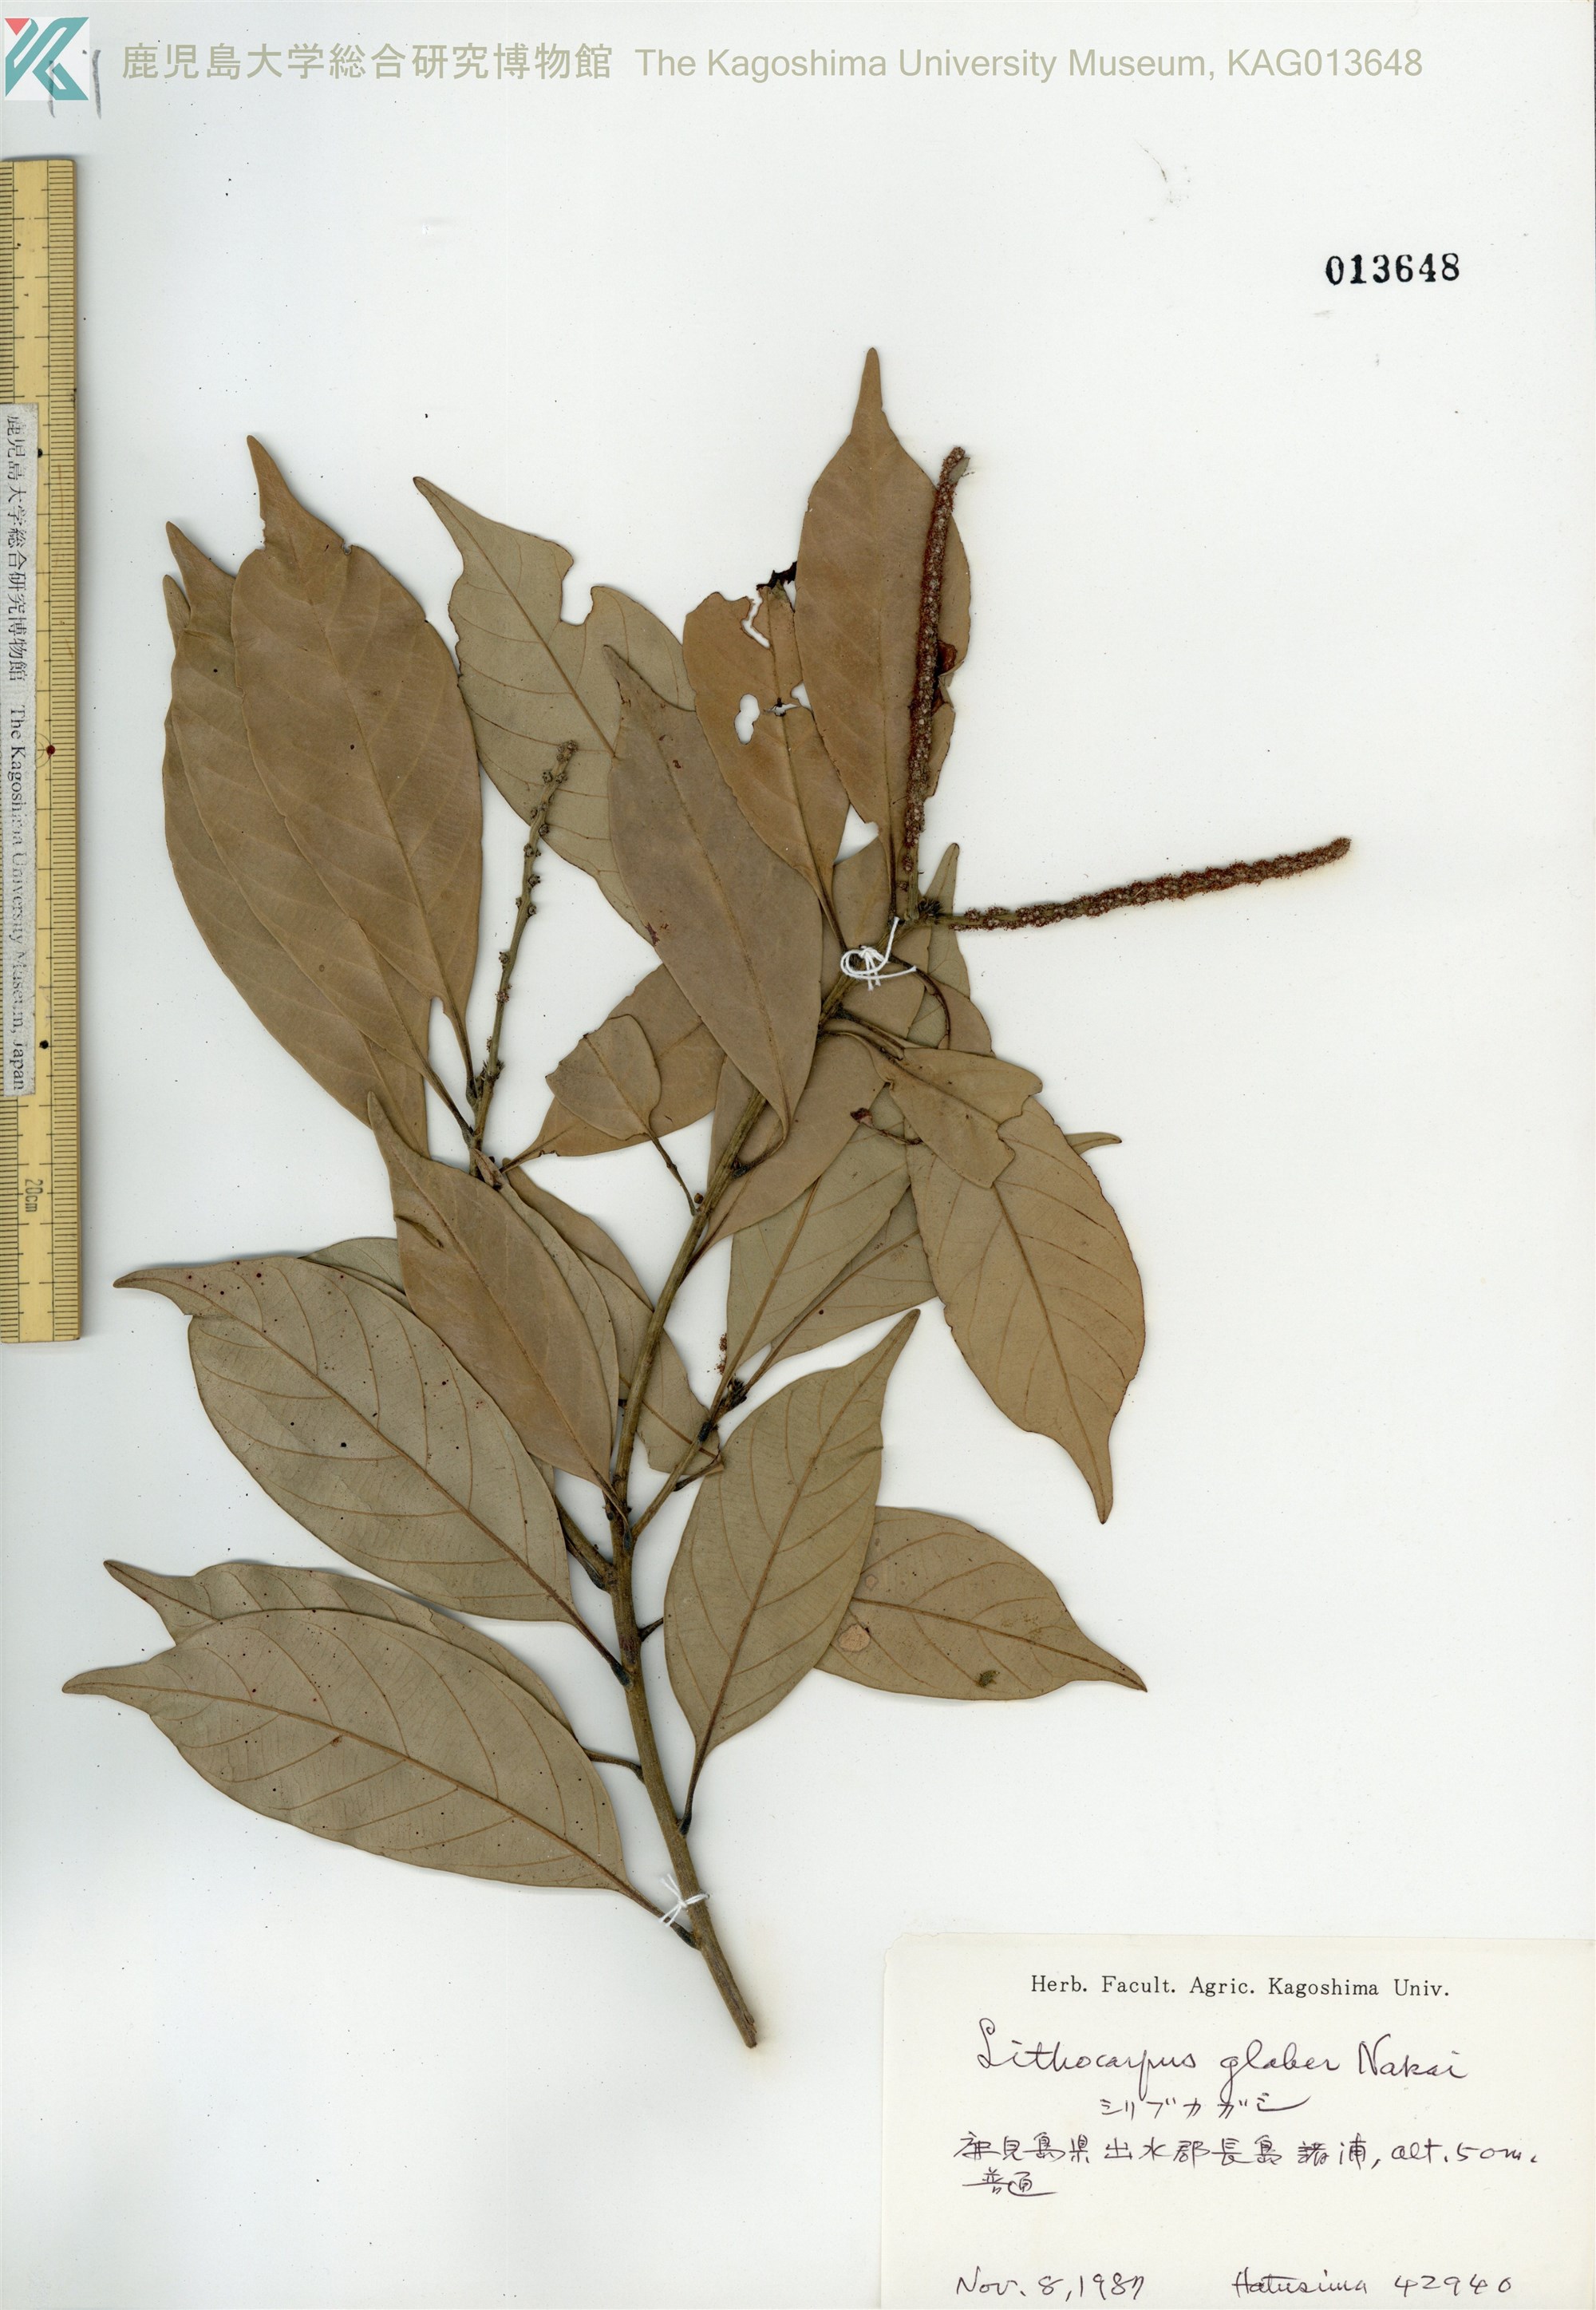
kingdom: Plantae
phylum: Tracheophyta
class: Magnoliopsida
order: Fagales
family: Fagaceae
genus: Lithocarpus
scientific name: Lithocarpus glaber
